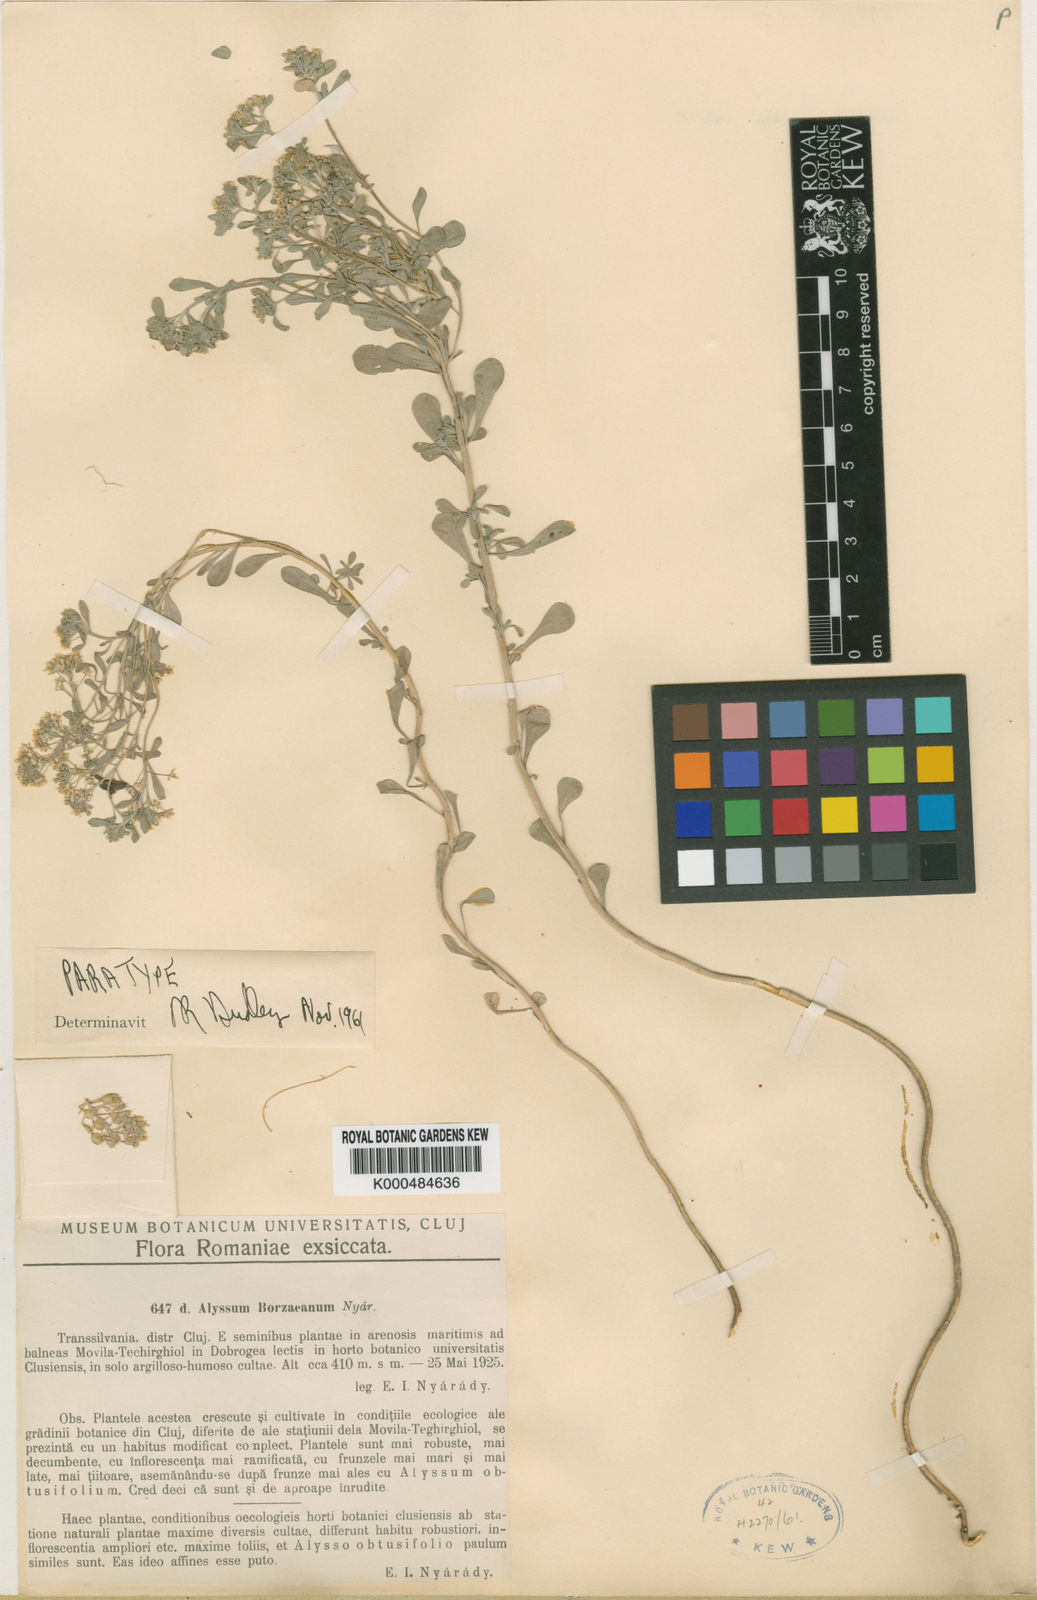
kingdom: Plantae
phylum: Tracheophyta
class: Magnoliopsida
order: Brassicales
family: Brassicaceae
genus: Odontarrhena
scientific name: Odontarrhena borzeana
